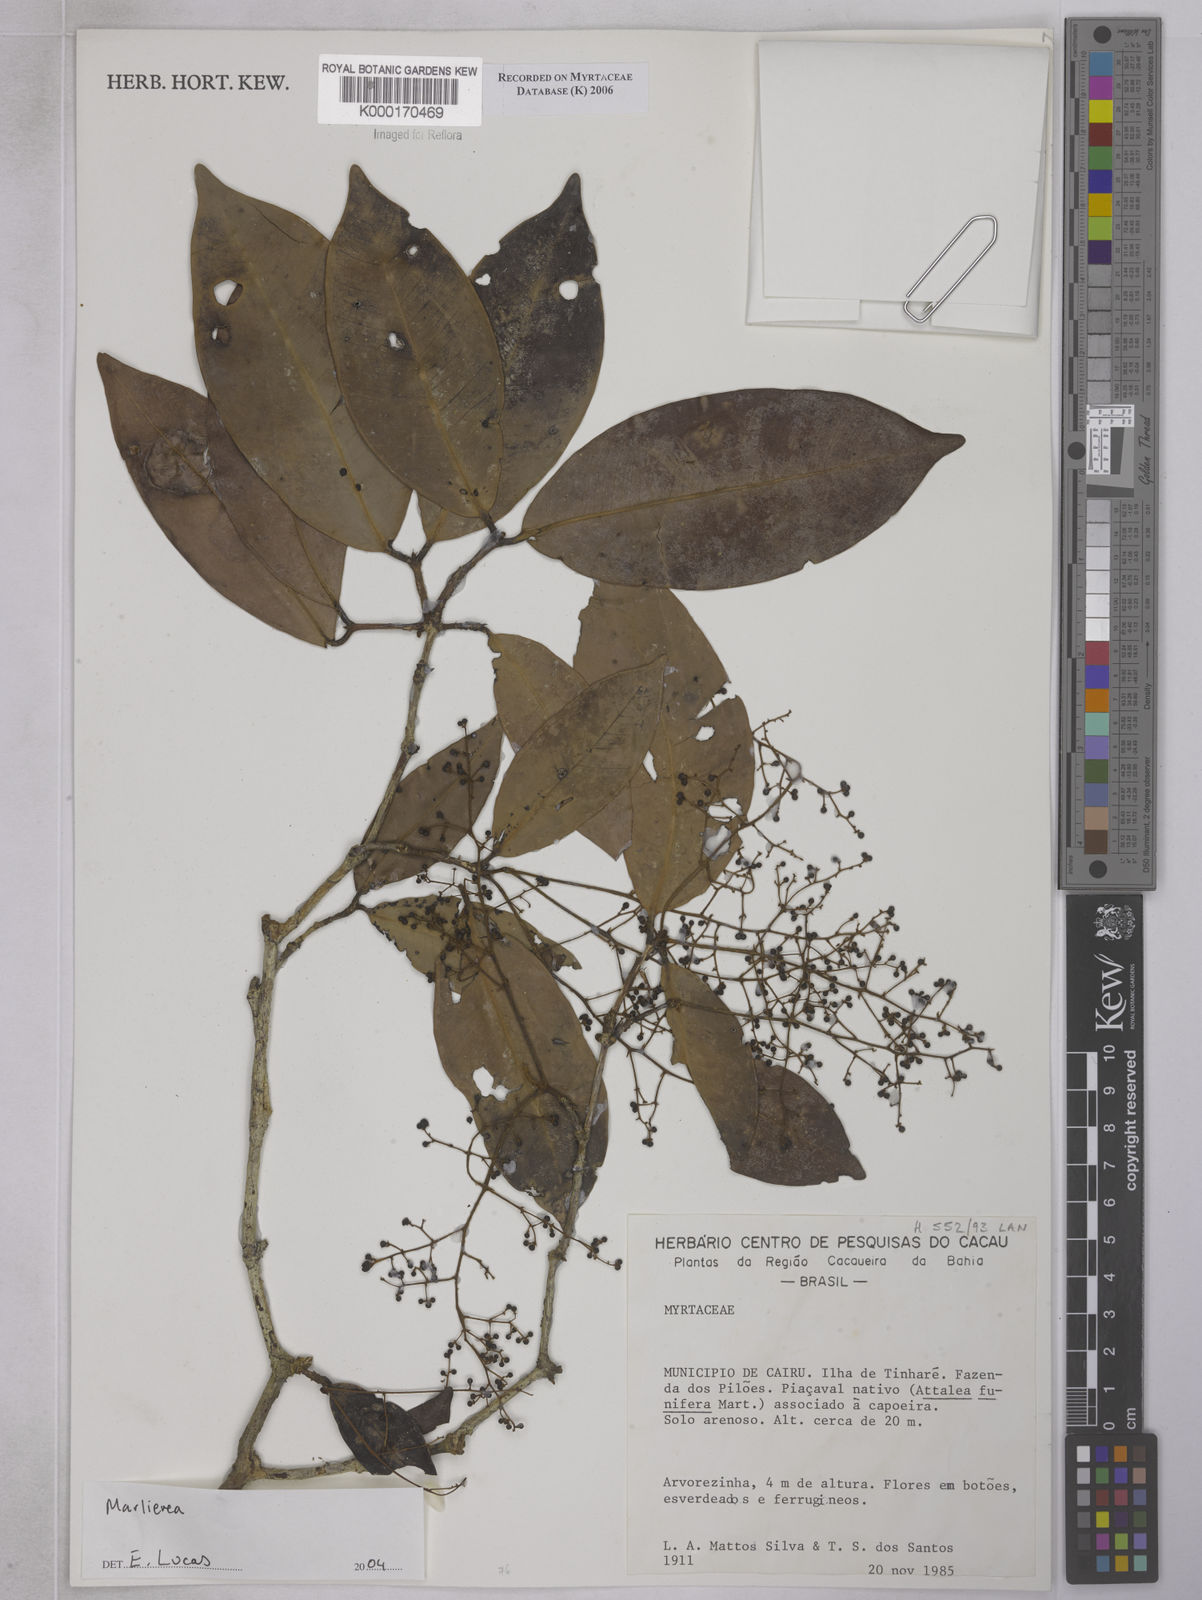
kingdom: Plantae
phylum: Tracheophyta
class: Magnoliopsida
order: Myrtales
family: Myrtaceae
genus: Marlierea
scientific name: Marlierea
